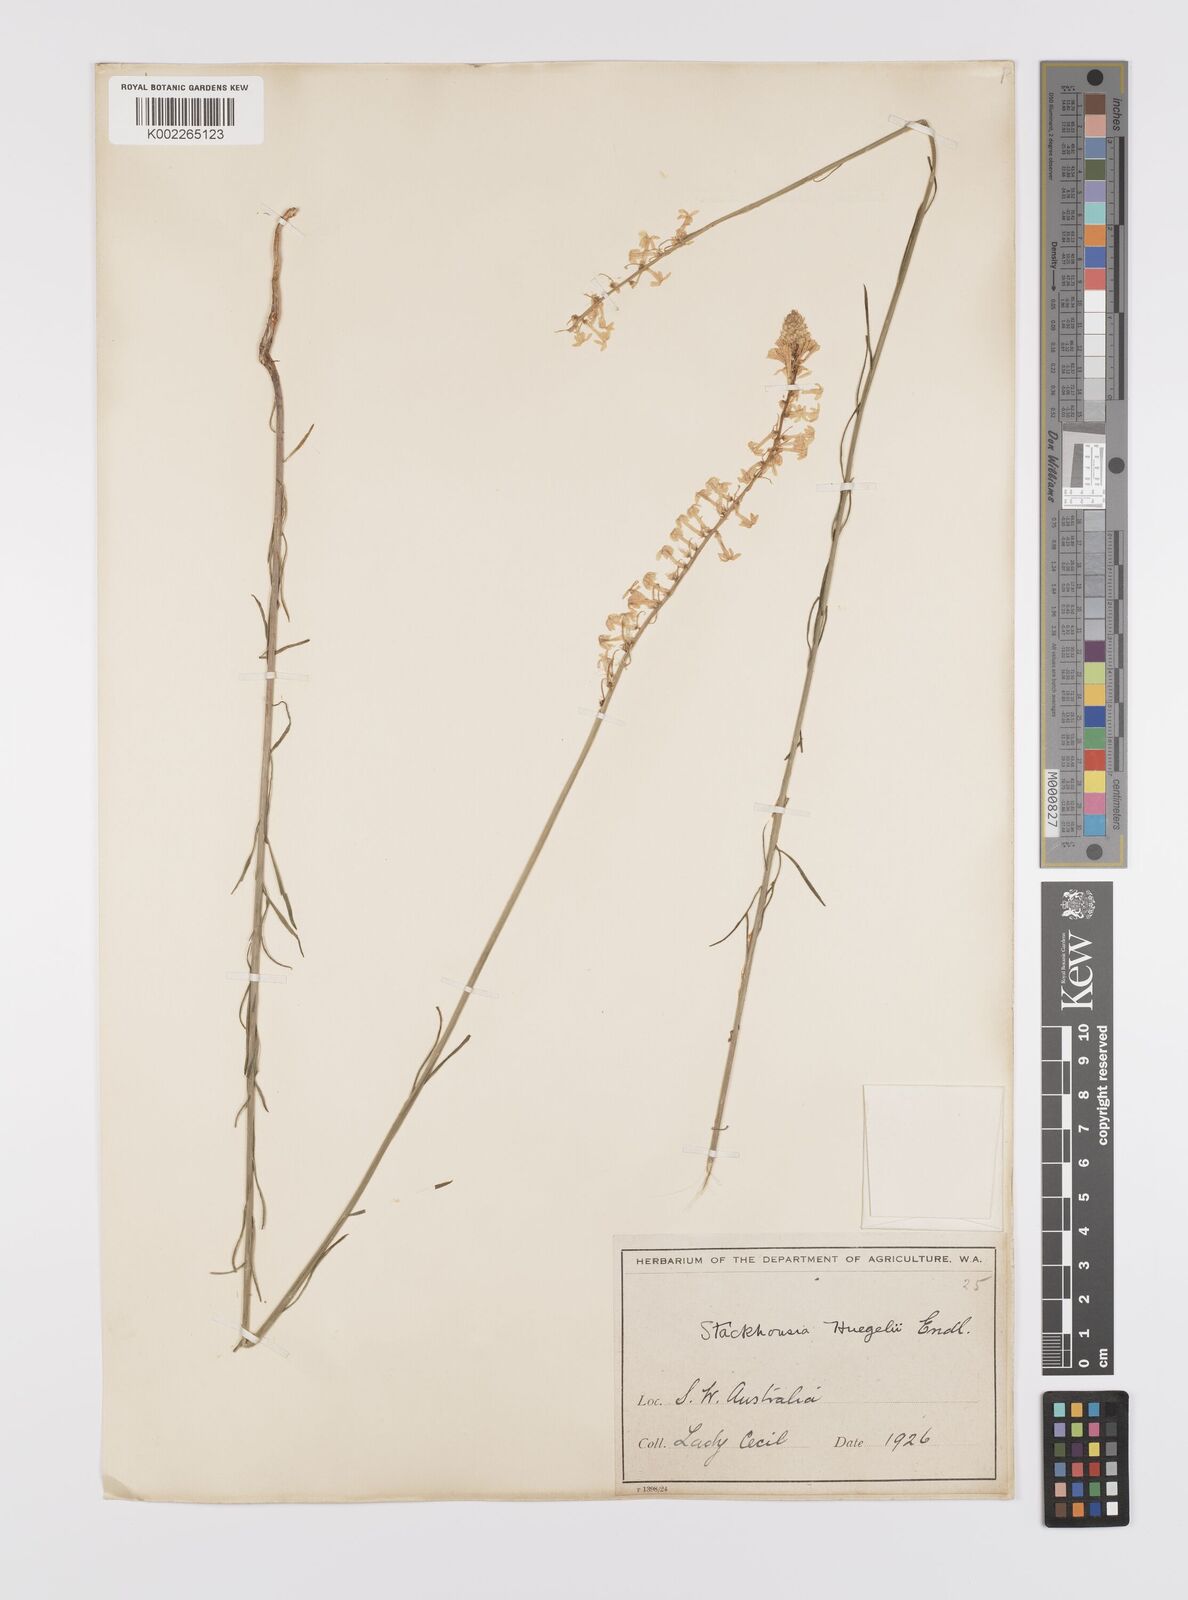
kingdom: Plantae
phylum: Tracheophyta
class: Magnoliopsida
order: Celastrales
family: Celastraceae
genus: Stackhousia
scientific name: Stackhousia monogyna
